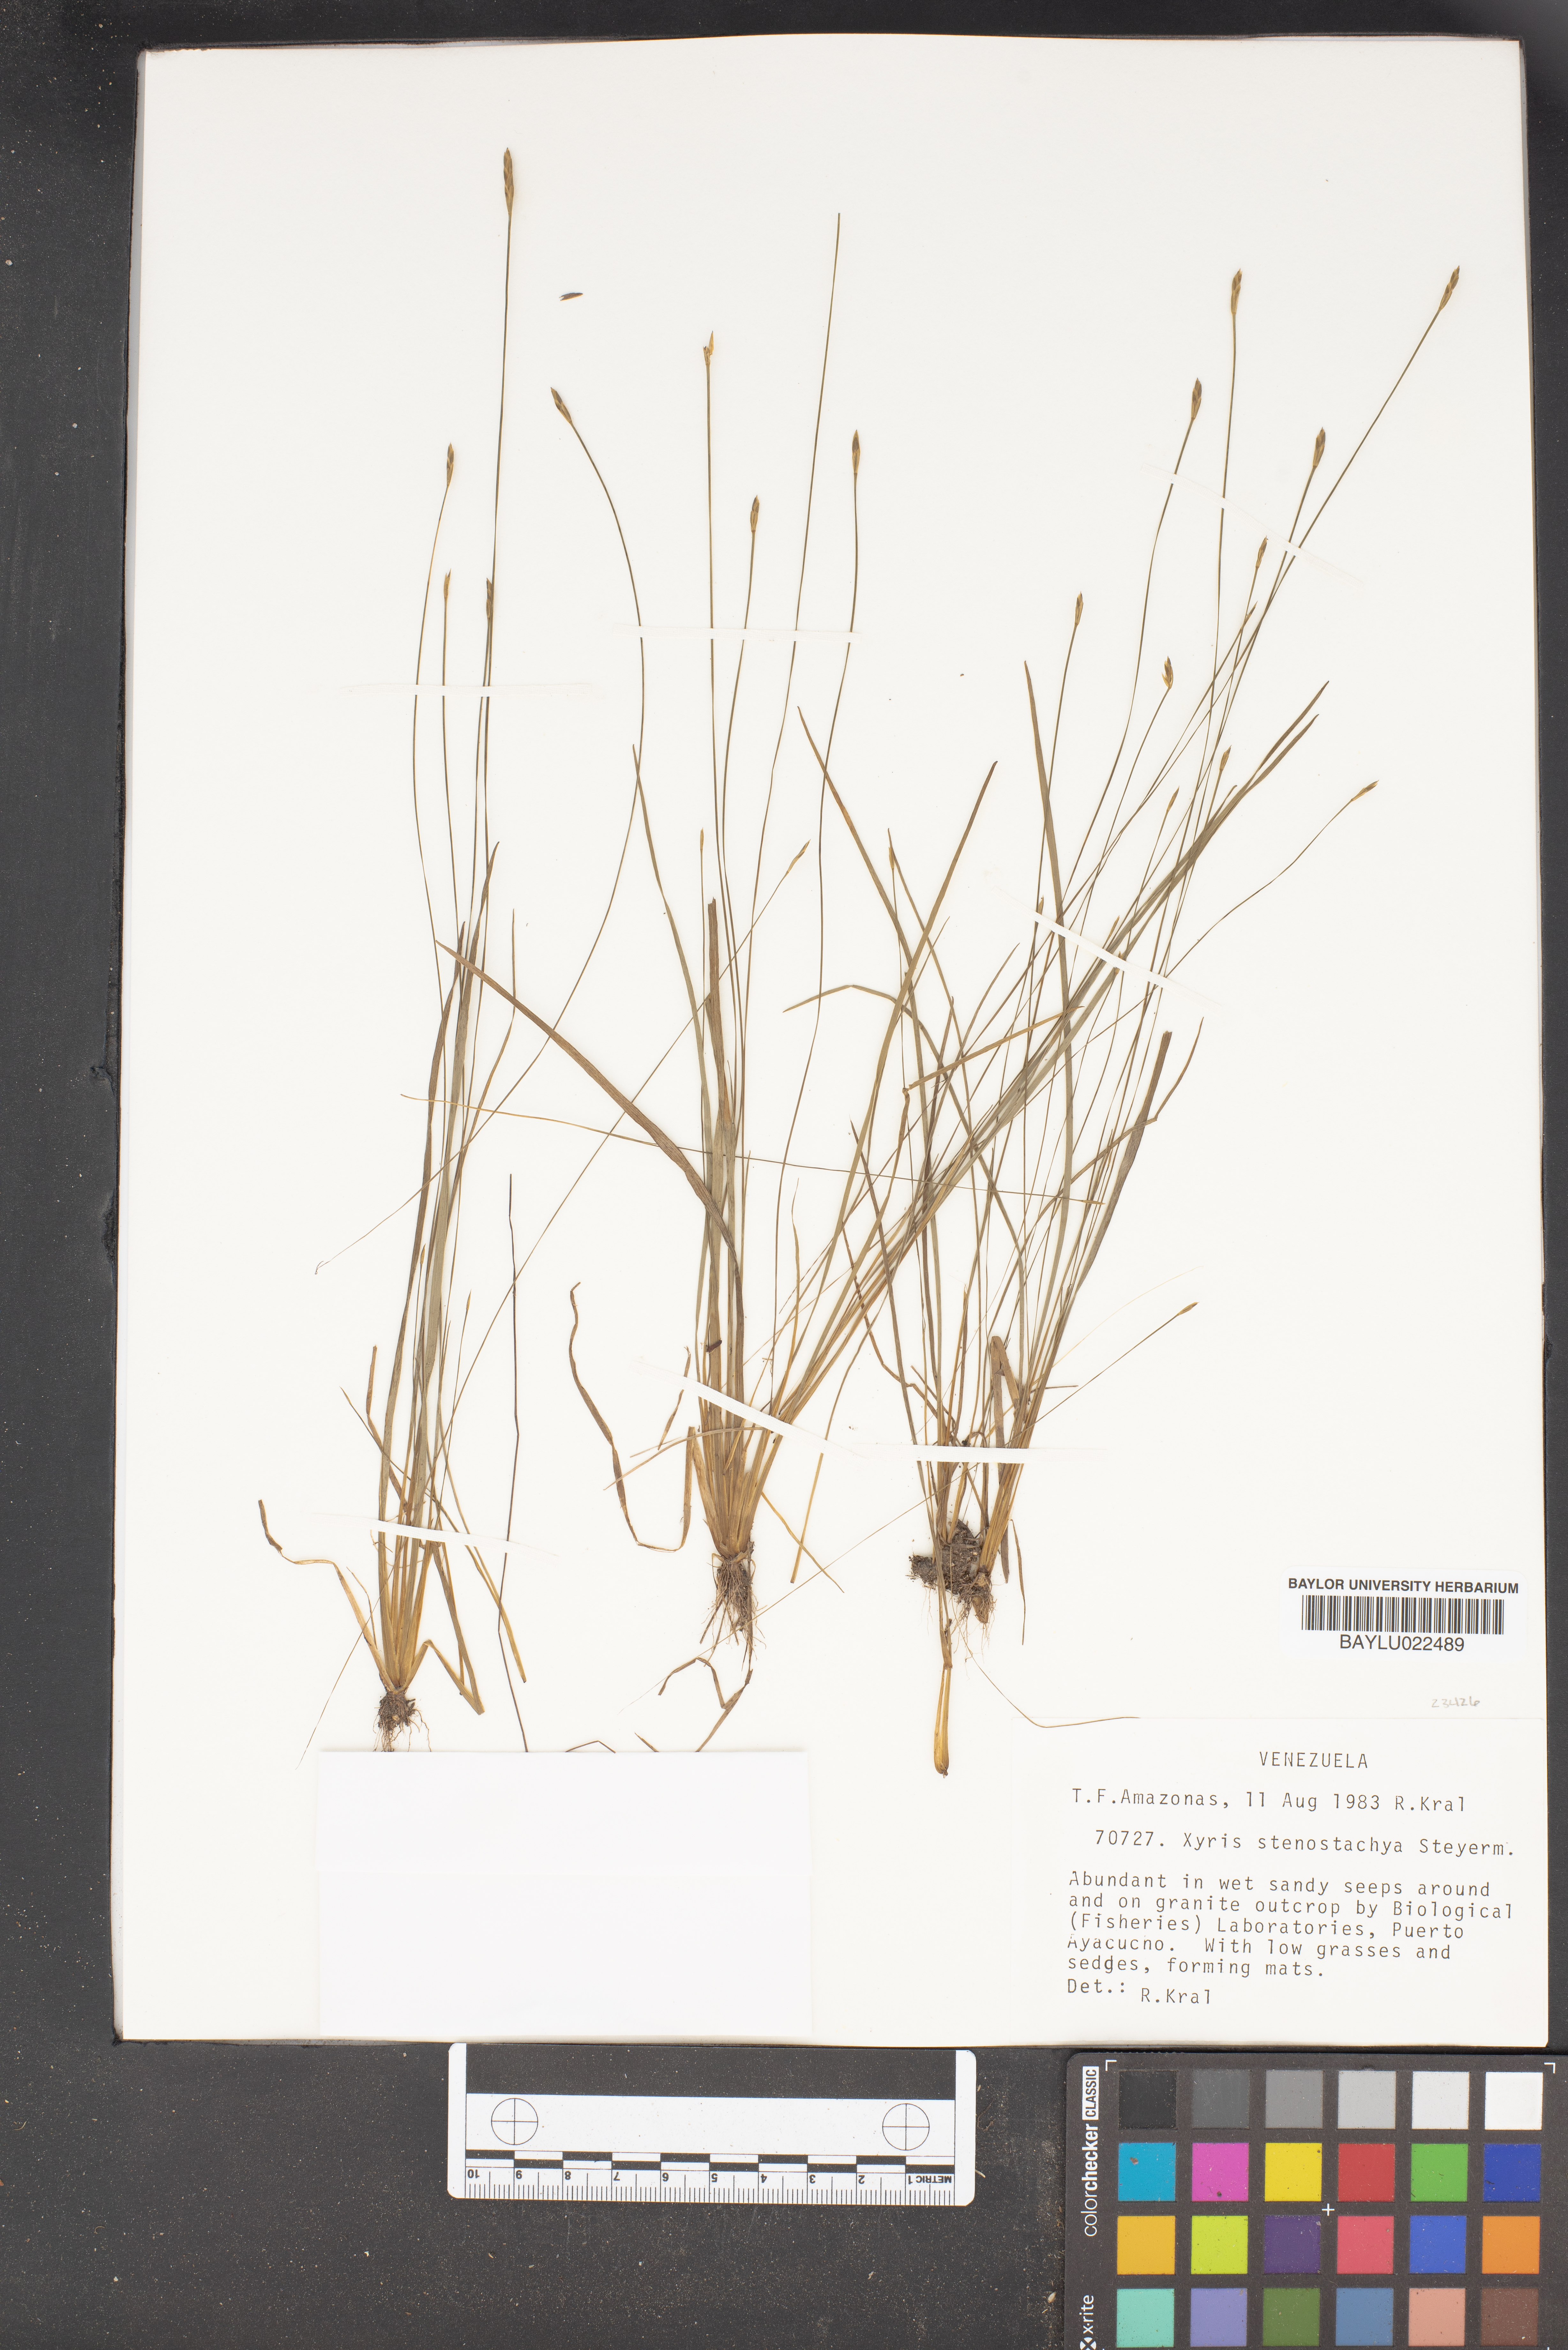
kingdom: Plantae
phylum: Tracheophyta
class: Liliopsida
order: Poales
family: Xyridaceae
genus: Xyris
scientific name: Xyris stenostachya
